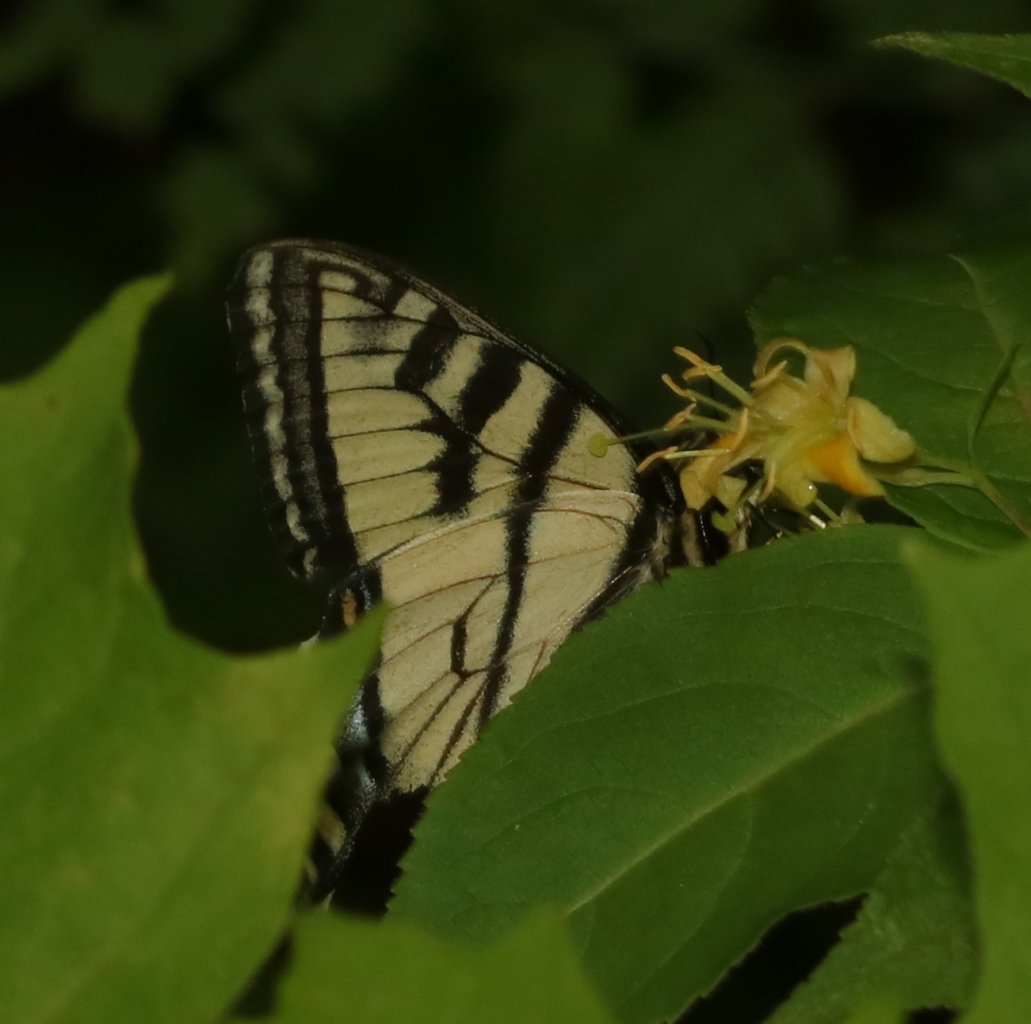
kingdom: Animalia
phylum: Arthropoda
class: Insecta
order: Lepidoptera
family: Papilionidae
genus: Pterourus
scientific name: Pterourus canadensis
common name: Canadian Tiger Swallowtail
